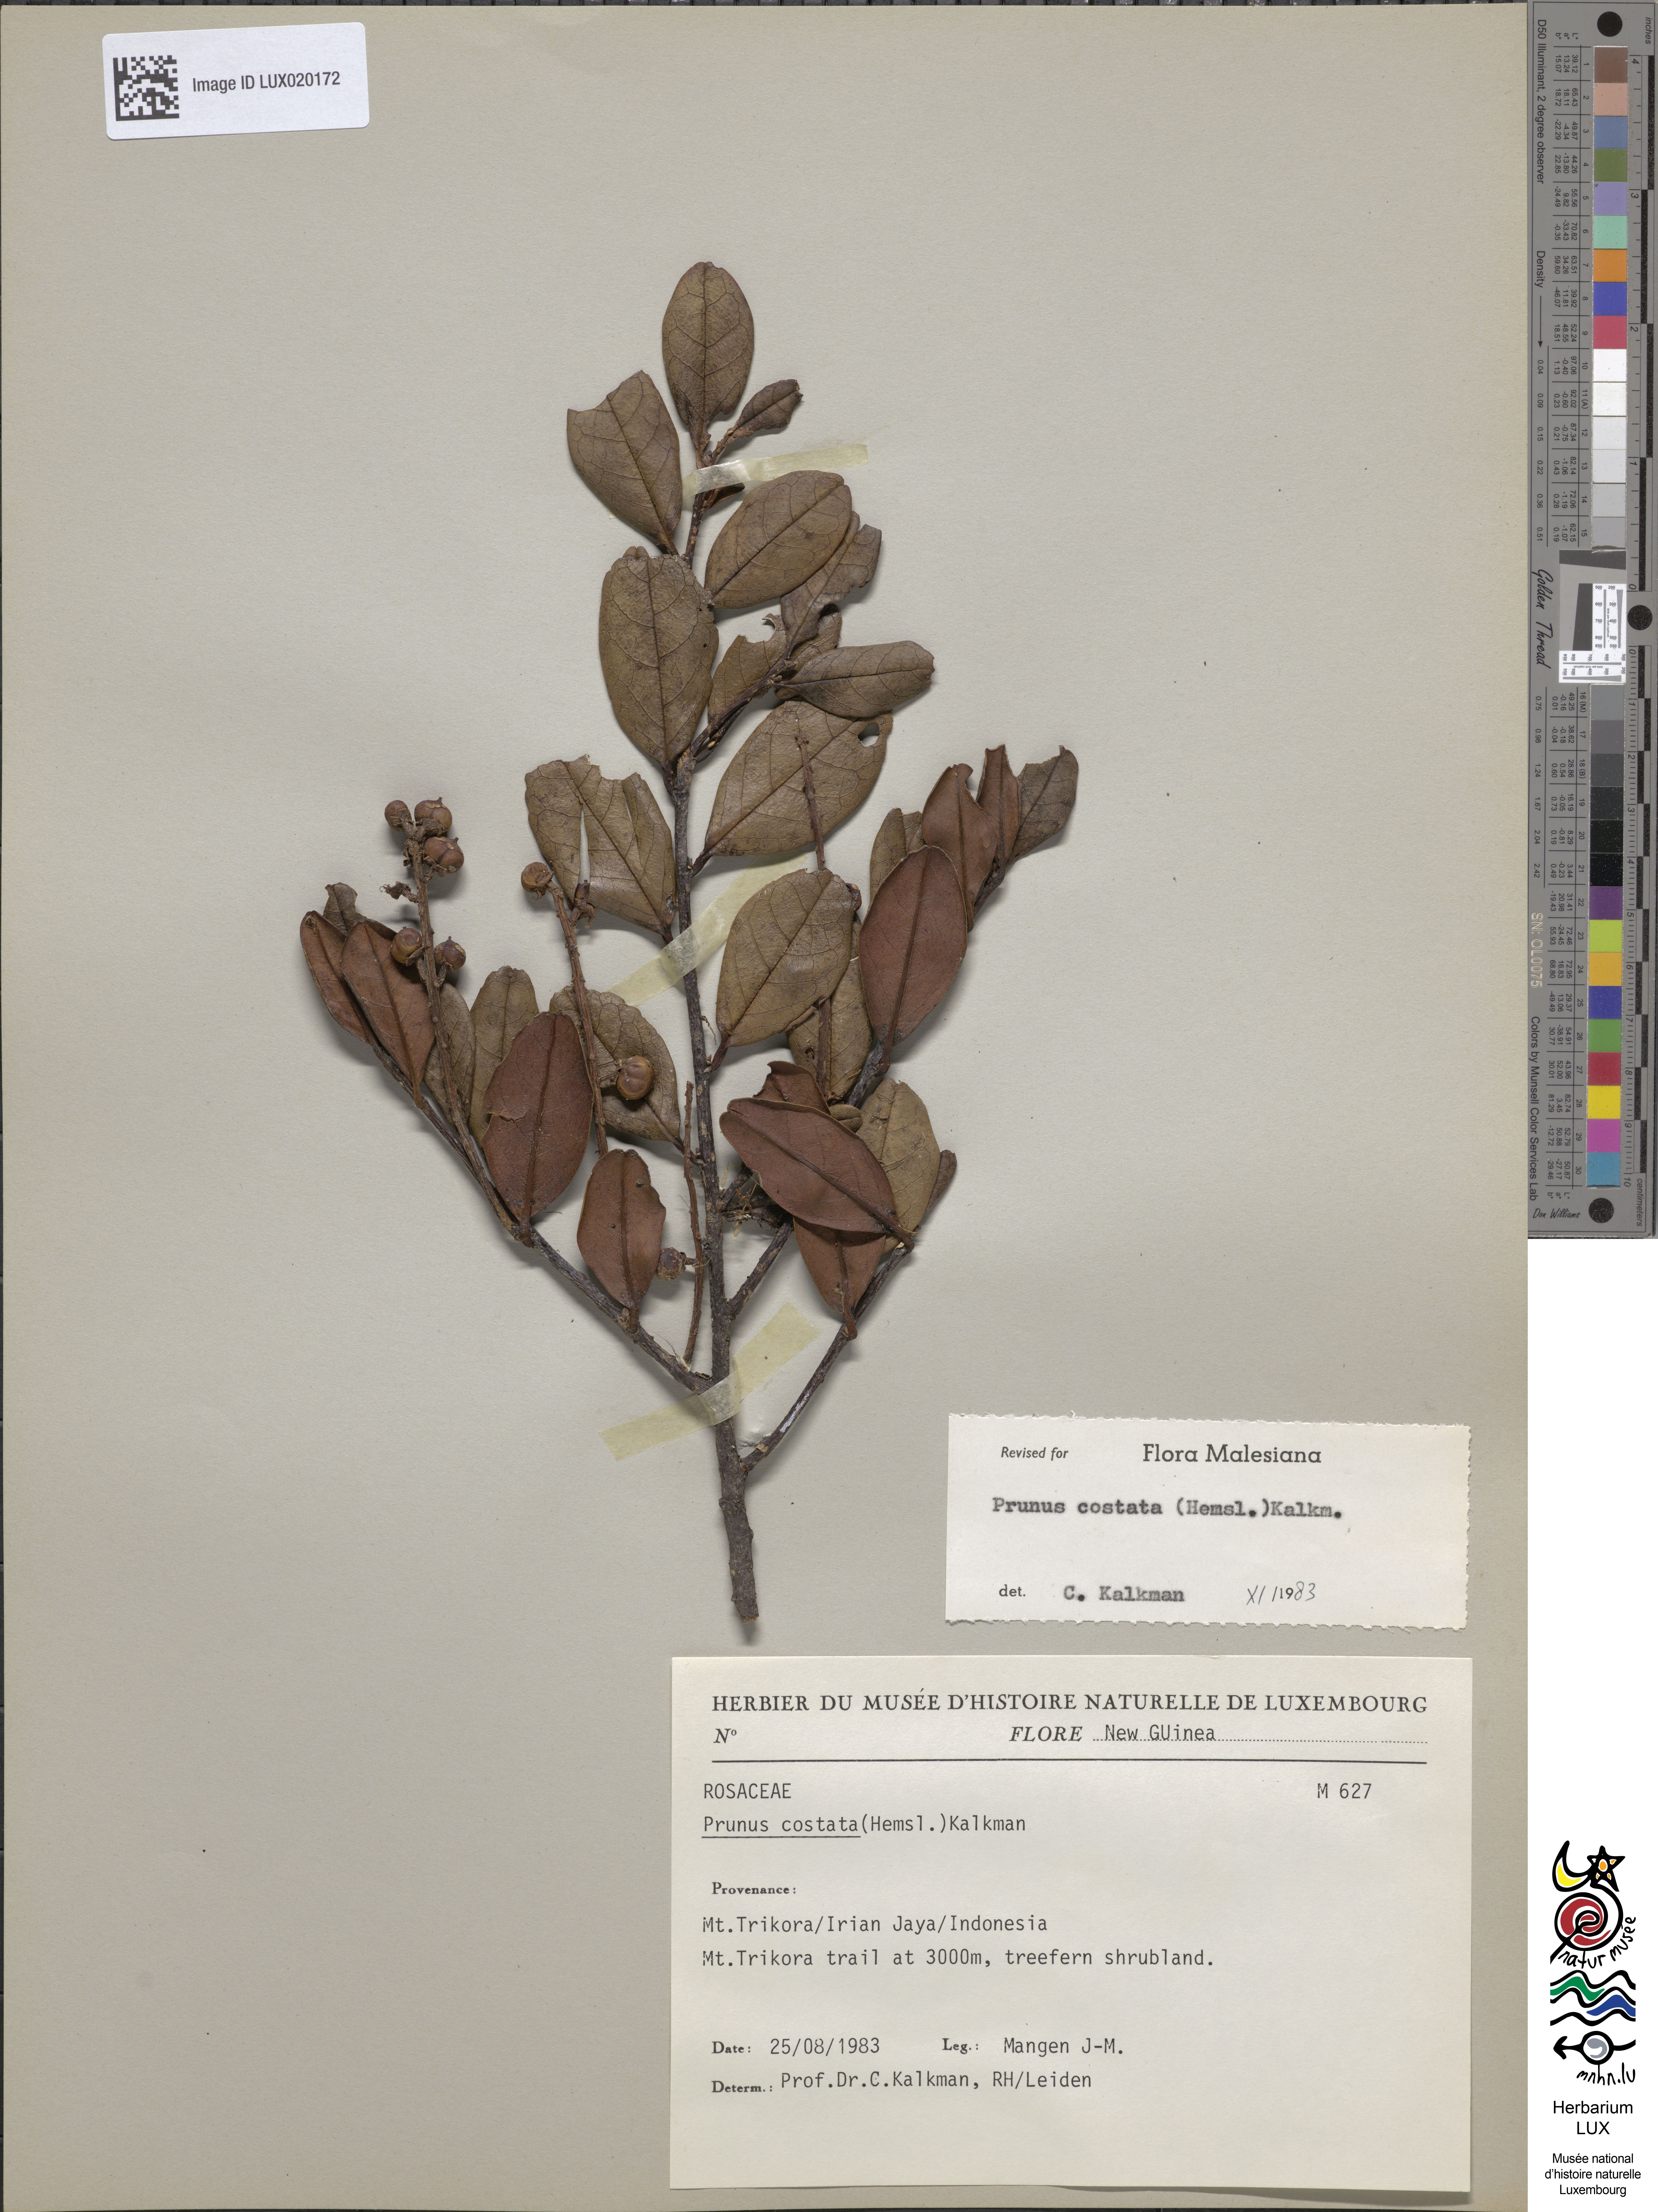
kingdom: Plantae
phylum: Tracheophyta
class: Magnoliopsida
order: Rosales
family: Rosaceae
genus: Prunus
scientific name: Prunus costata
